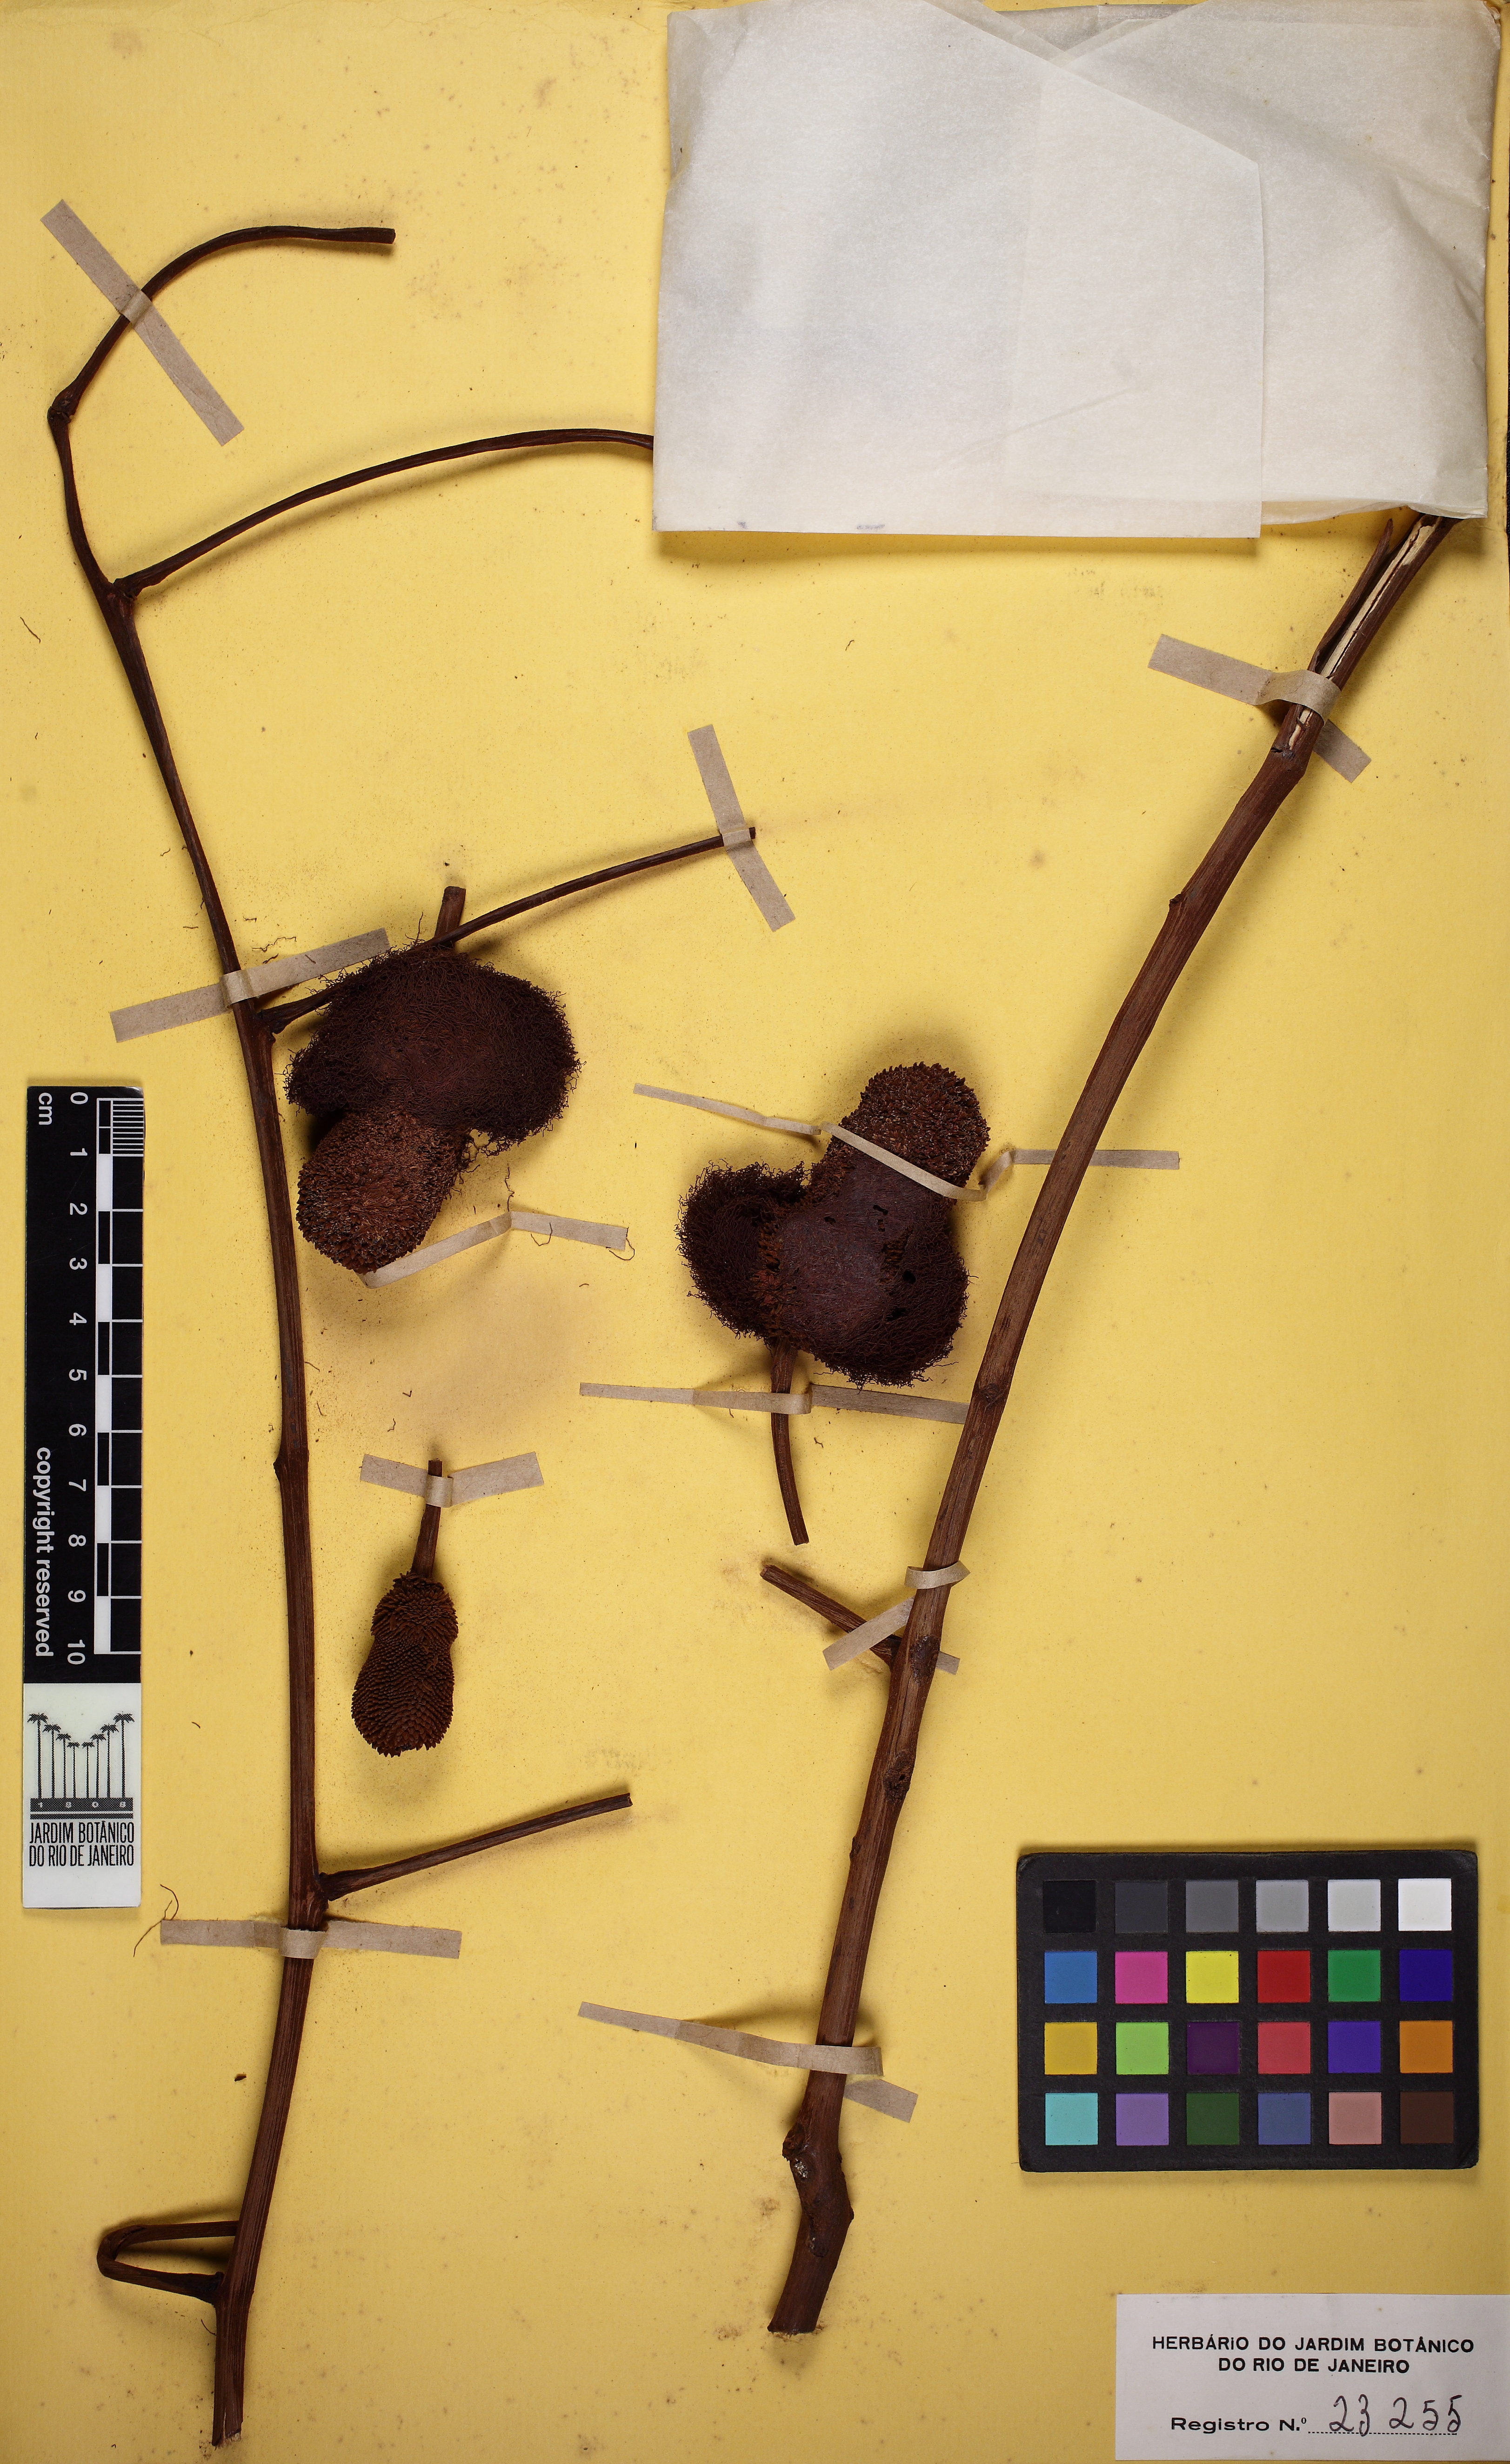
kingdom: Plantae
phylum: Tracheophyta
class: Magnoliopsida
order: Fabales
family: Fabaceae
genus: Parkia
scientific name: Parkia pectinata
